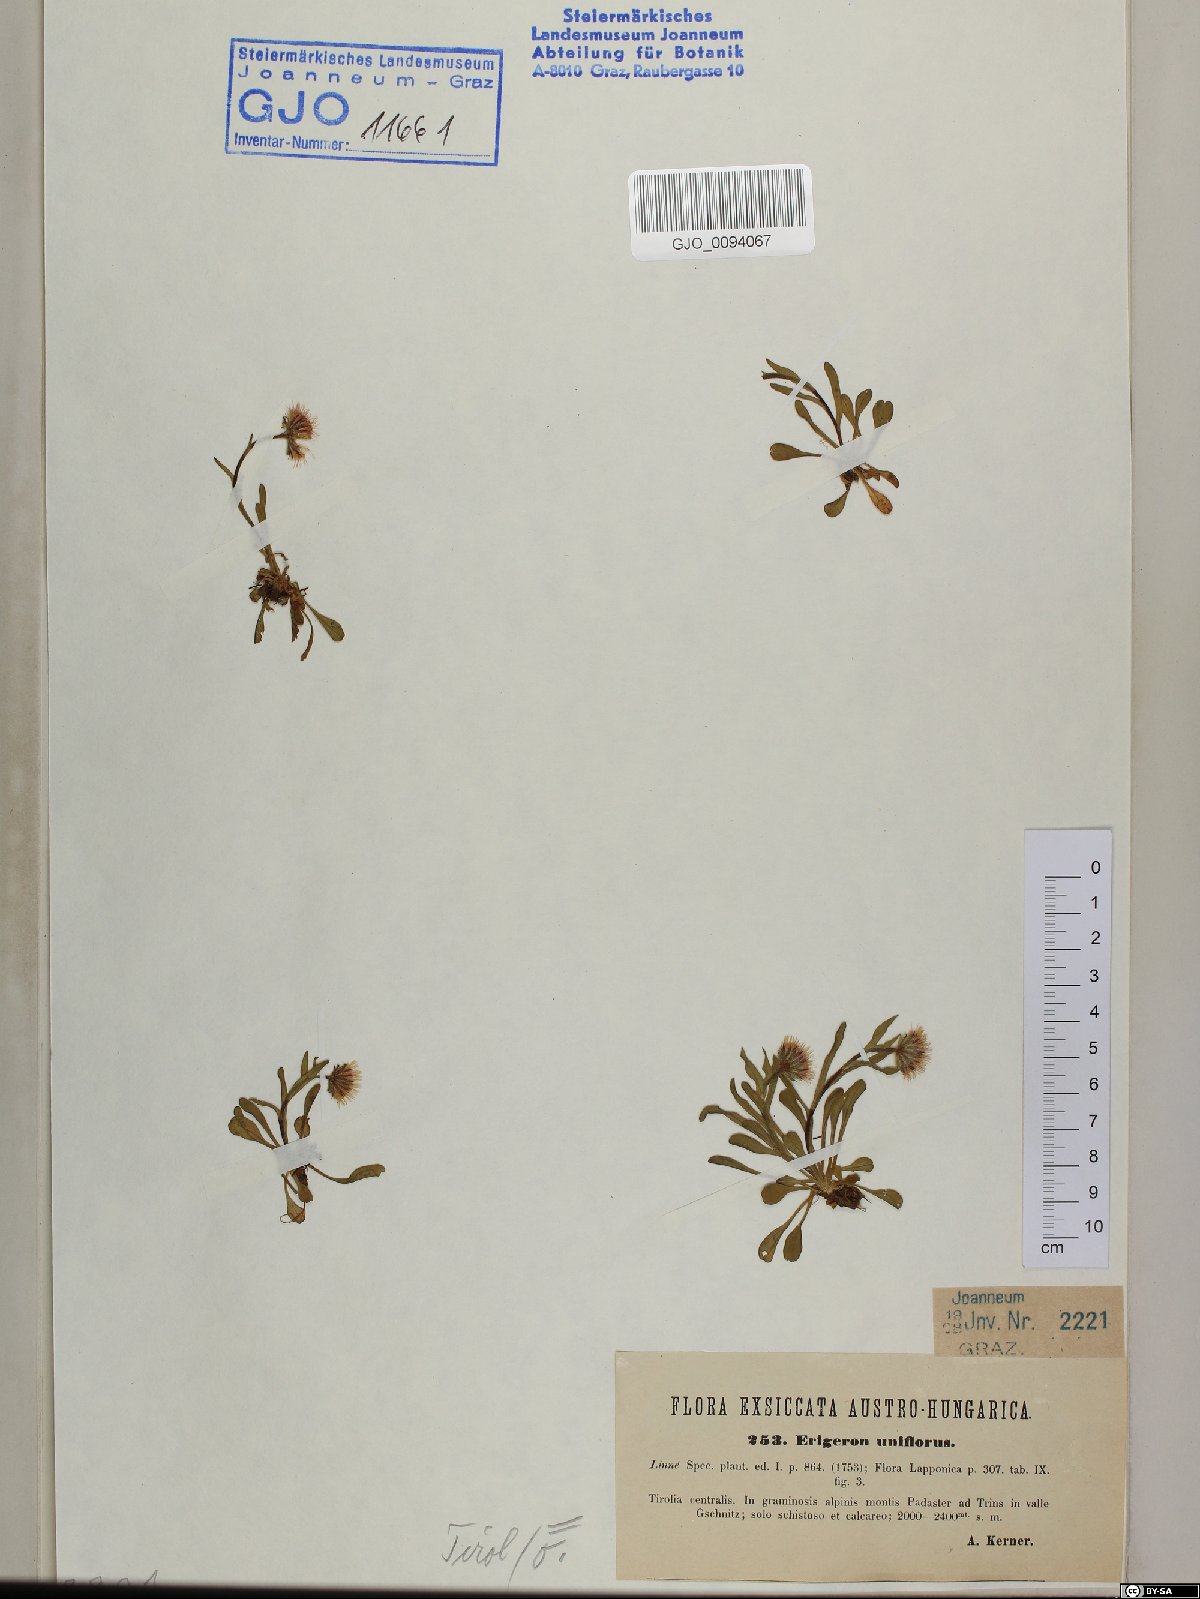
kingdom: Plantae
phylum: Tracheophyta
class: Magnoliopsida
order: Asterales
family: Asteraceae
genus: Erigeron
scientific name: Erigeron uniflorus
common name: Northern daisy
